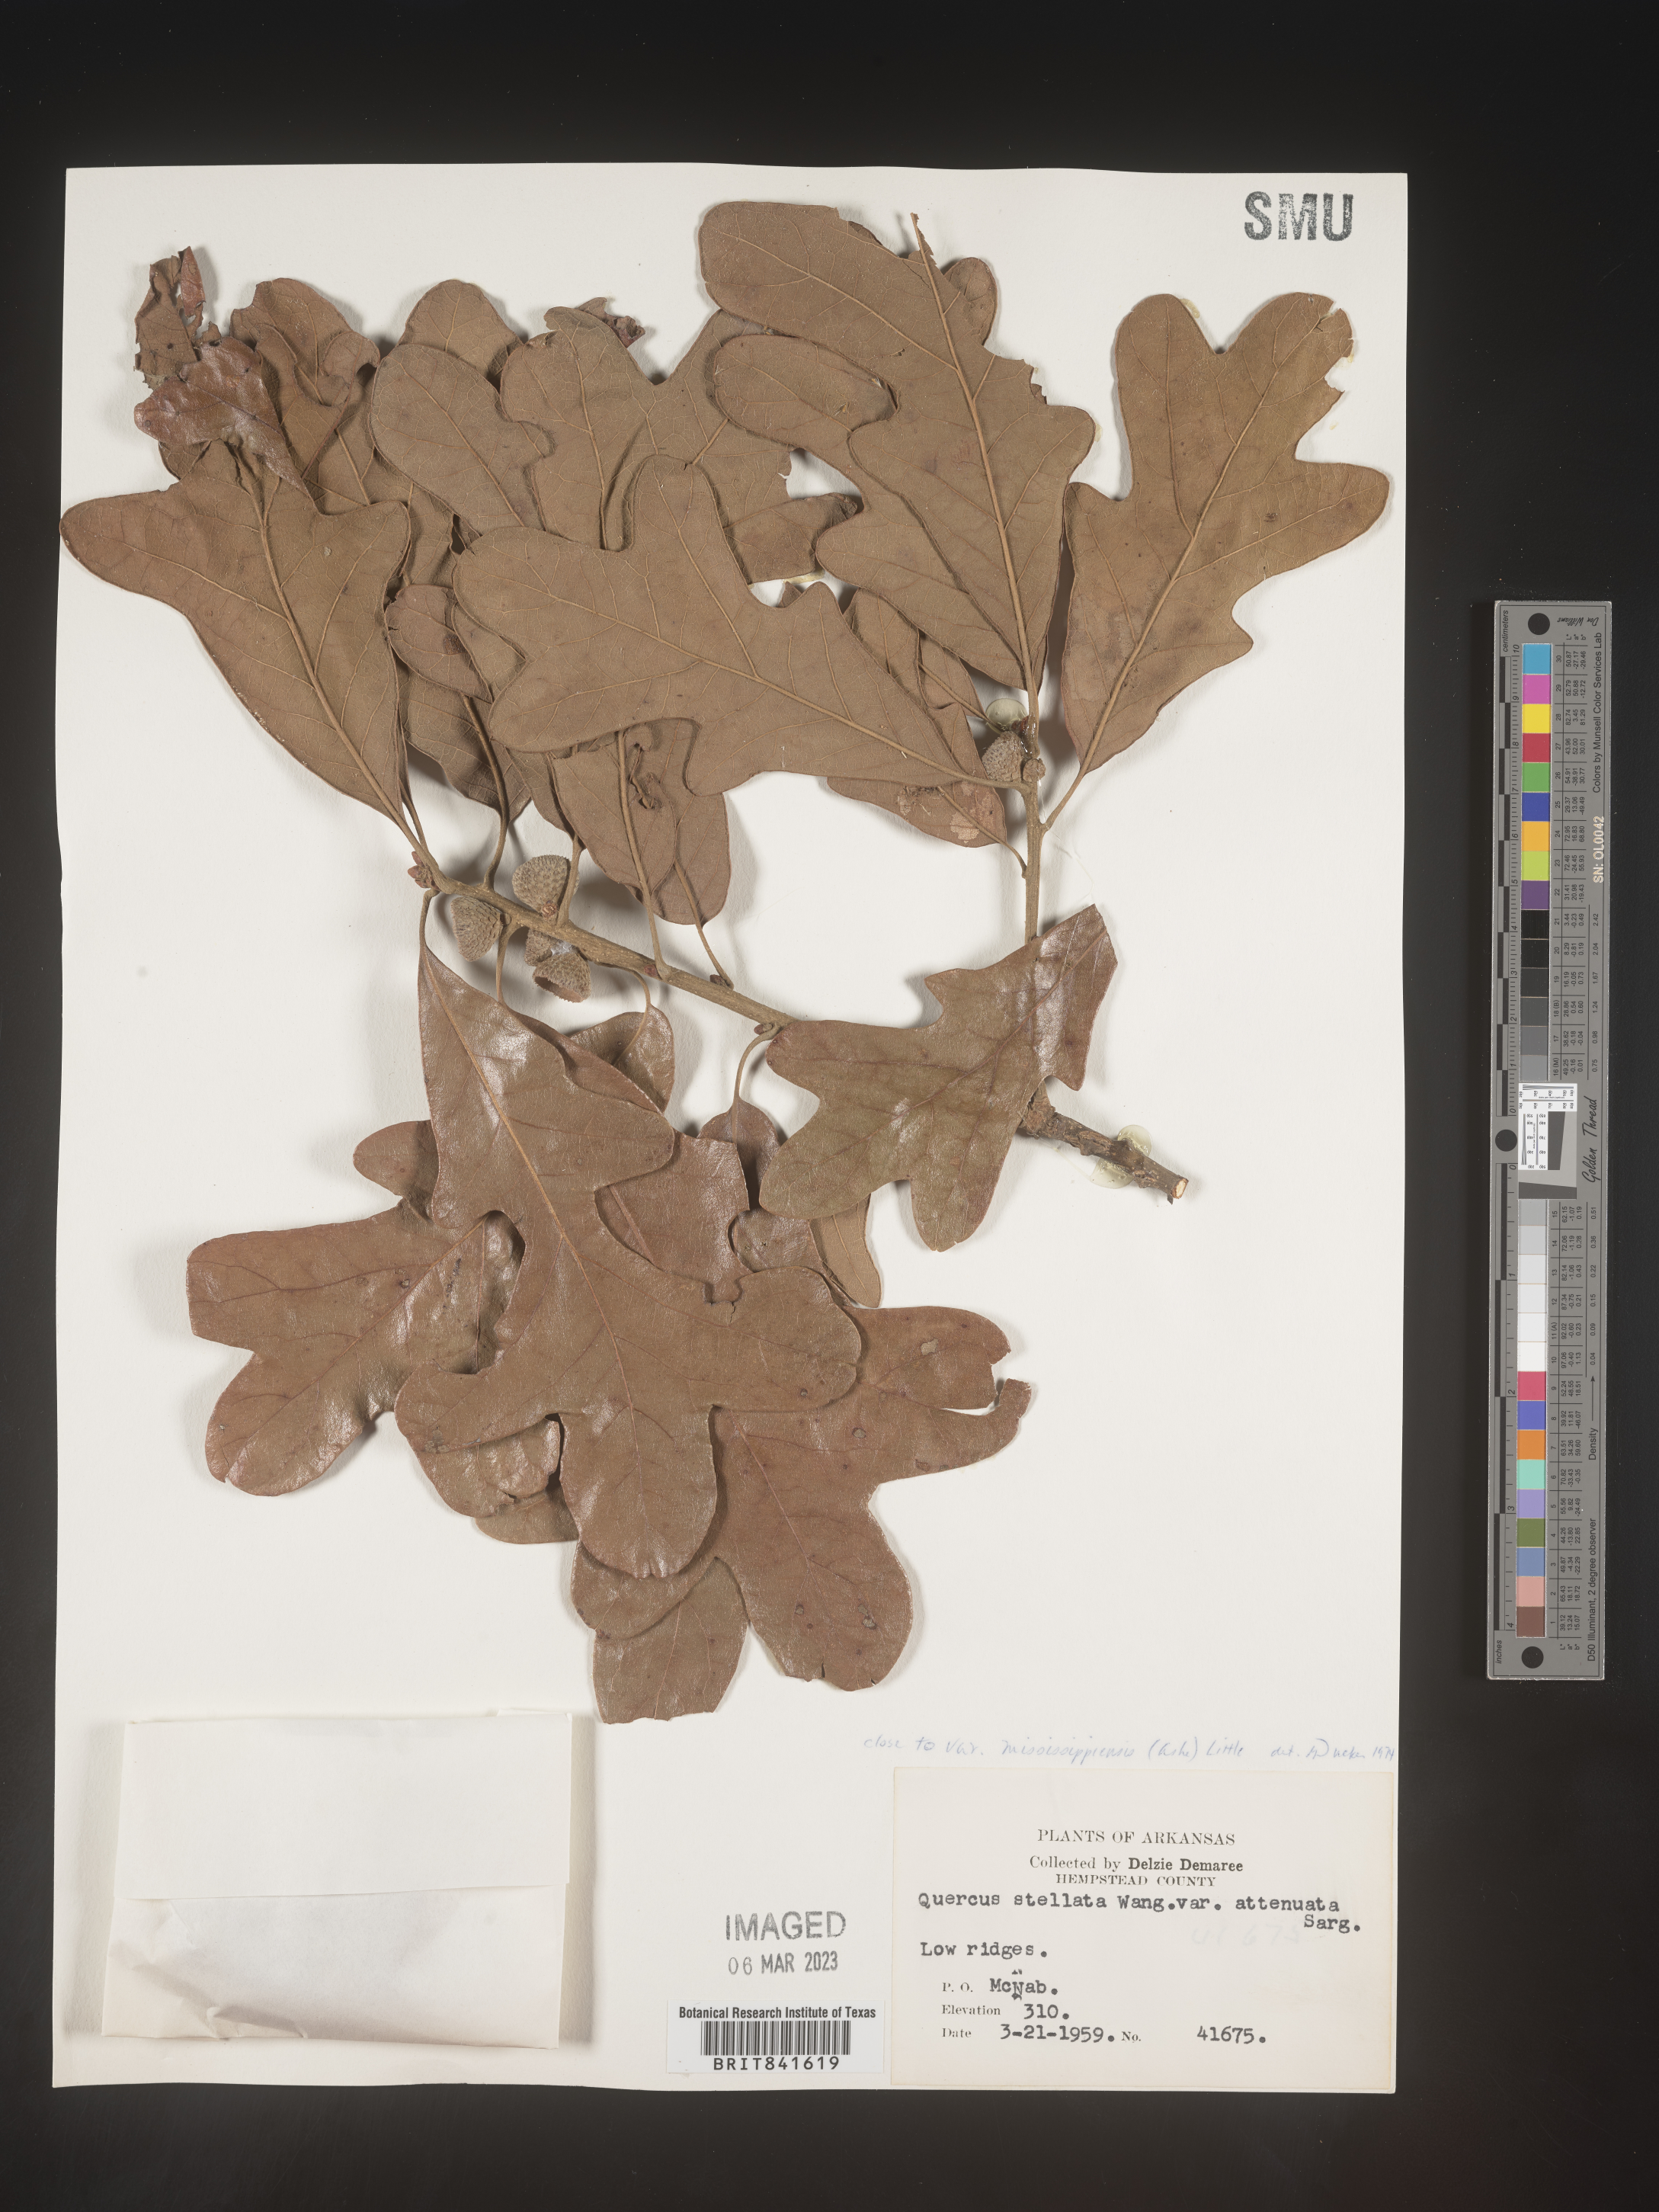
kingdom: Plantae
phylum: Tracheophyta
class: Magnoliopsida
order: Fagales
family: Fagaceae
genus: Quercus
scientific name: Quercus stellata
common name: Post oak
